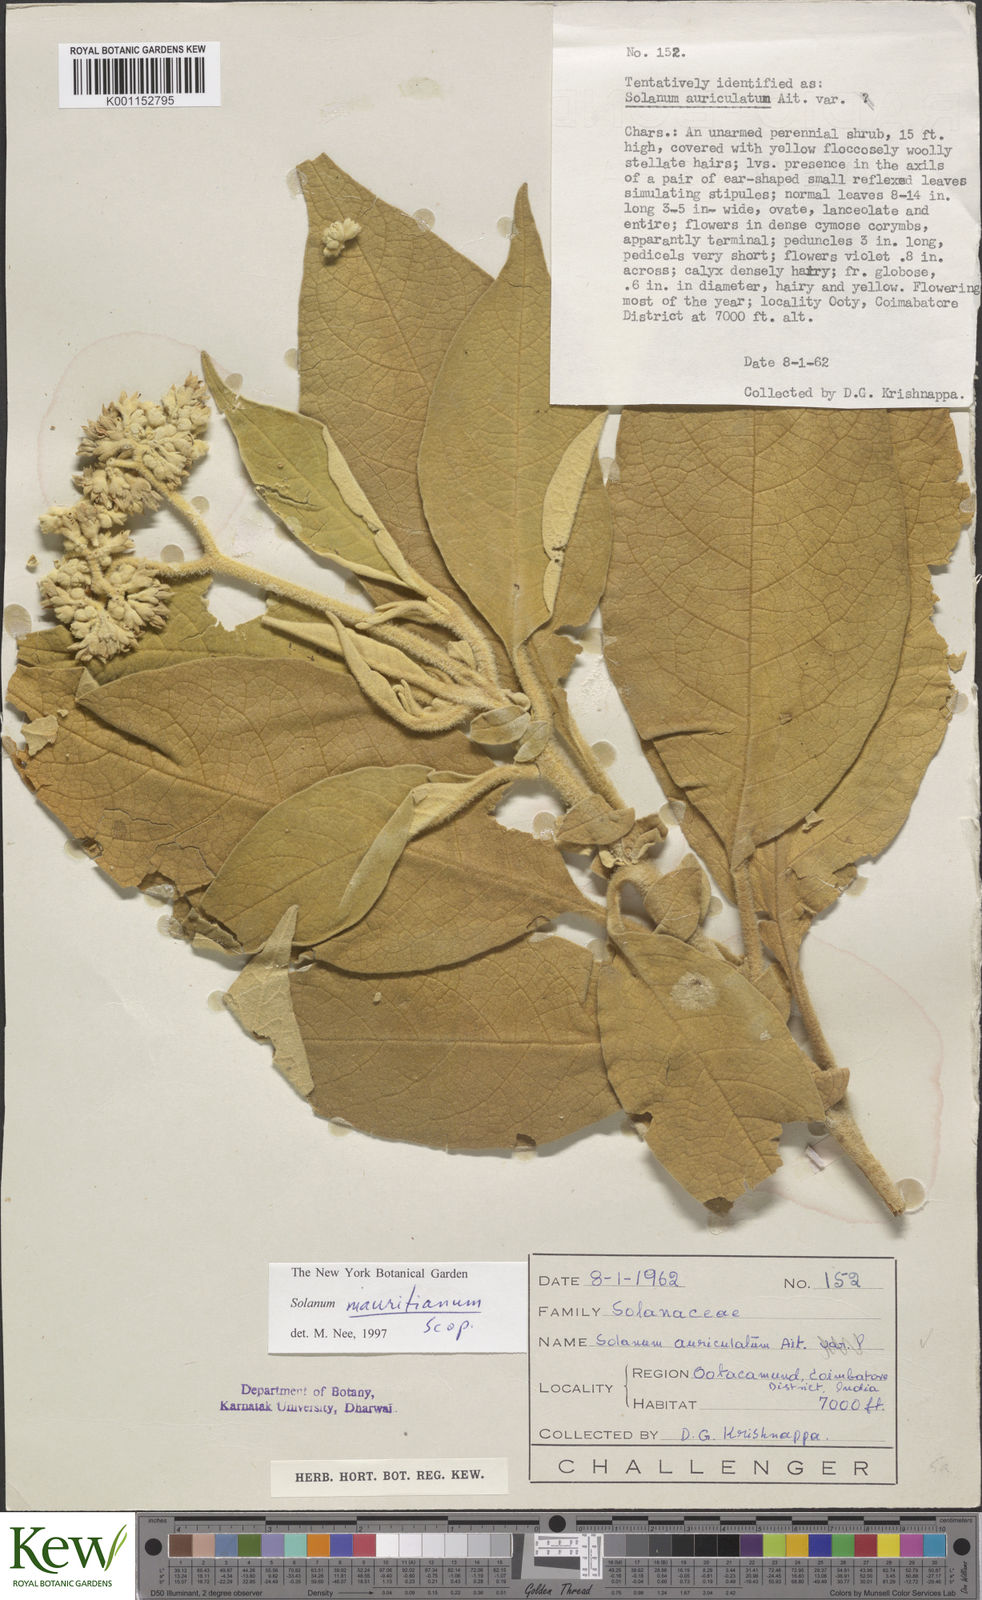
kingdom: Plantae
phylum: Tracheophyta
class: Magnoliopsida
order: Solanales
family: Solanaceae
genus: Solanum
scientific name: Solanum mauritianum
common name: Earleaf nightshade
